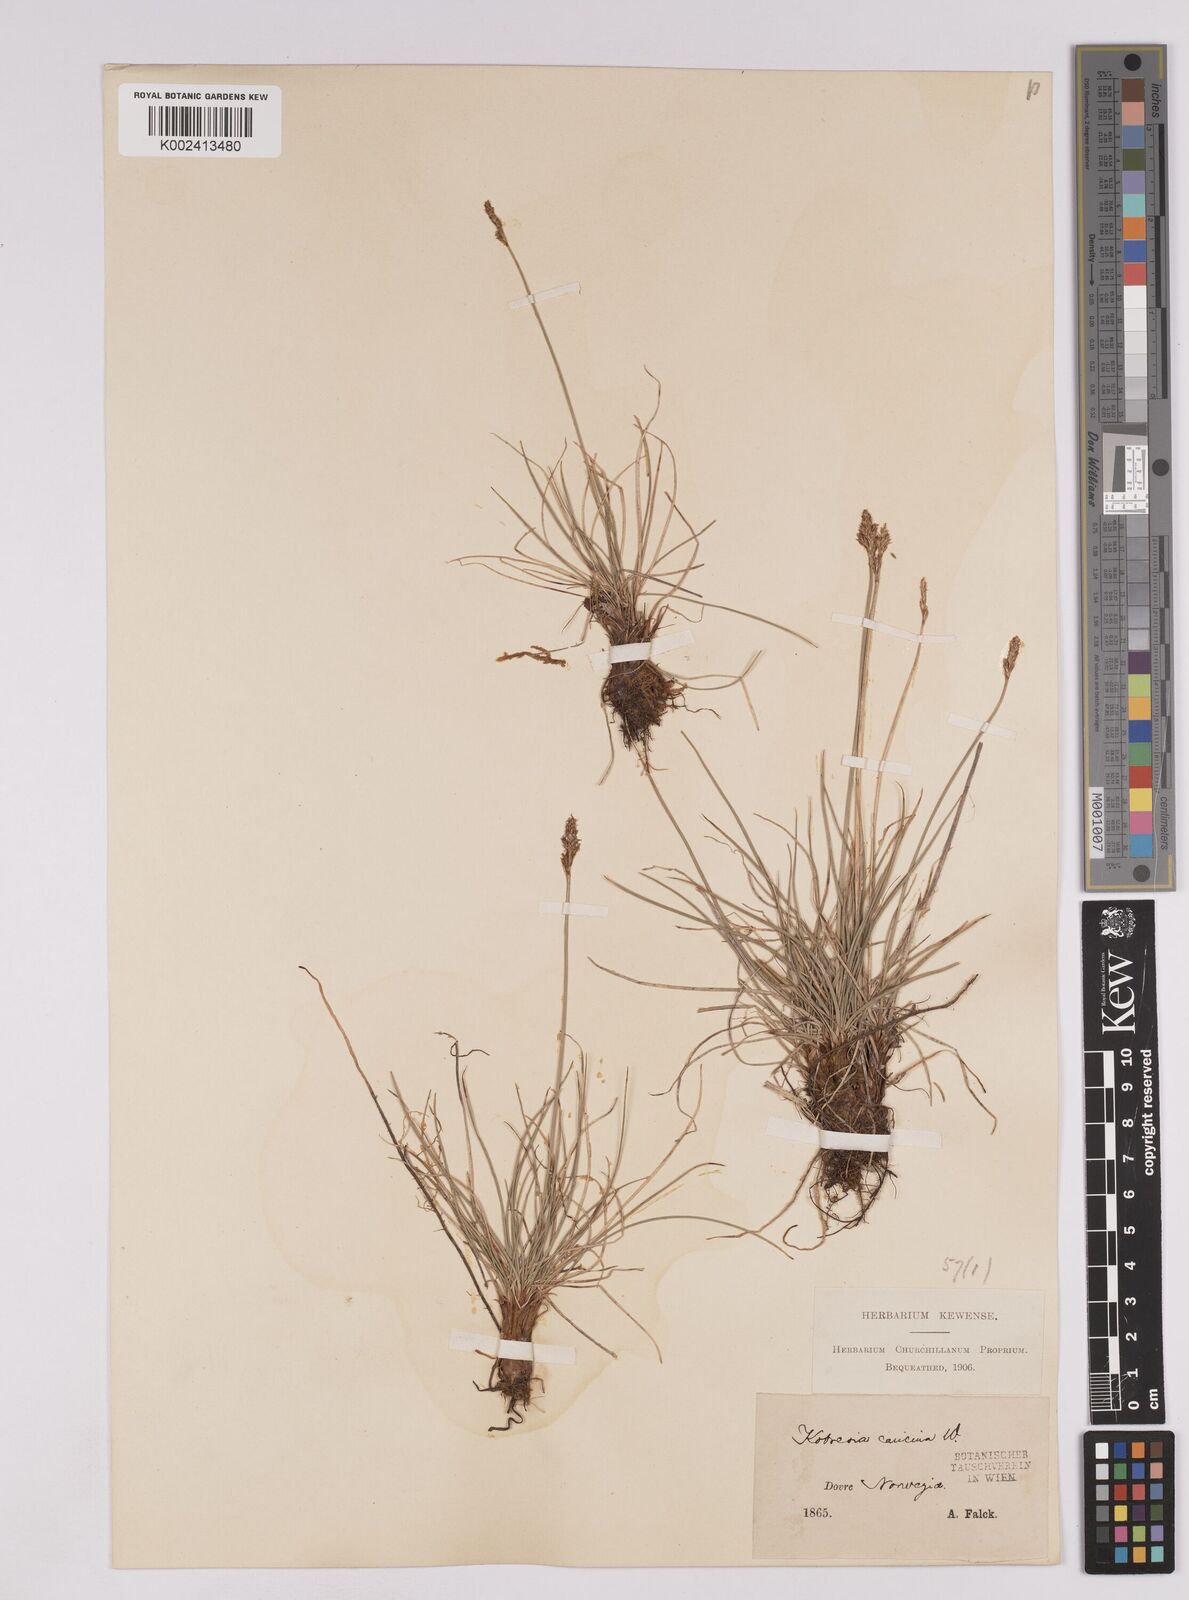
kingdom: Plantae
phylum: Tracheophyta
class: Liliopsida
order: Poales
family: Cyperaceae
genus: Carex
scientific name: Carex simpliciuscula
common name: Simple bog sedge
